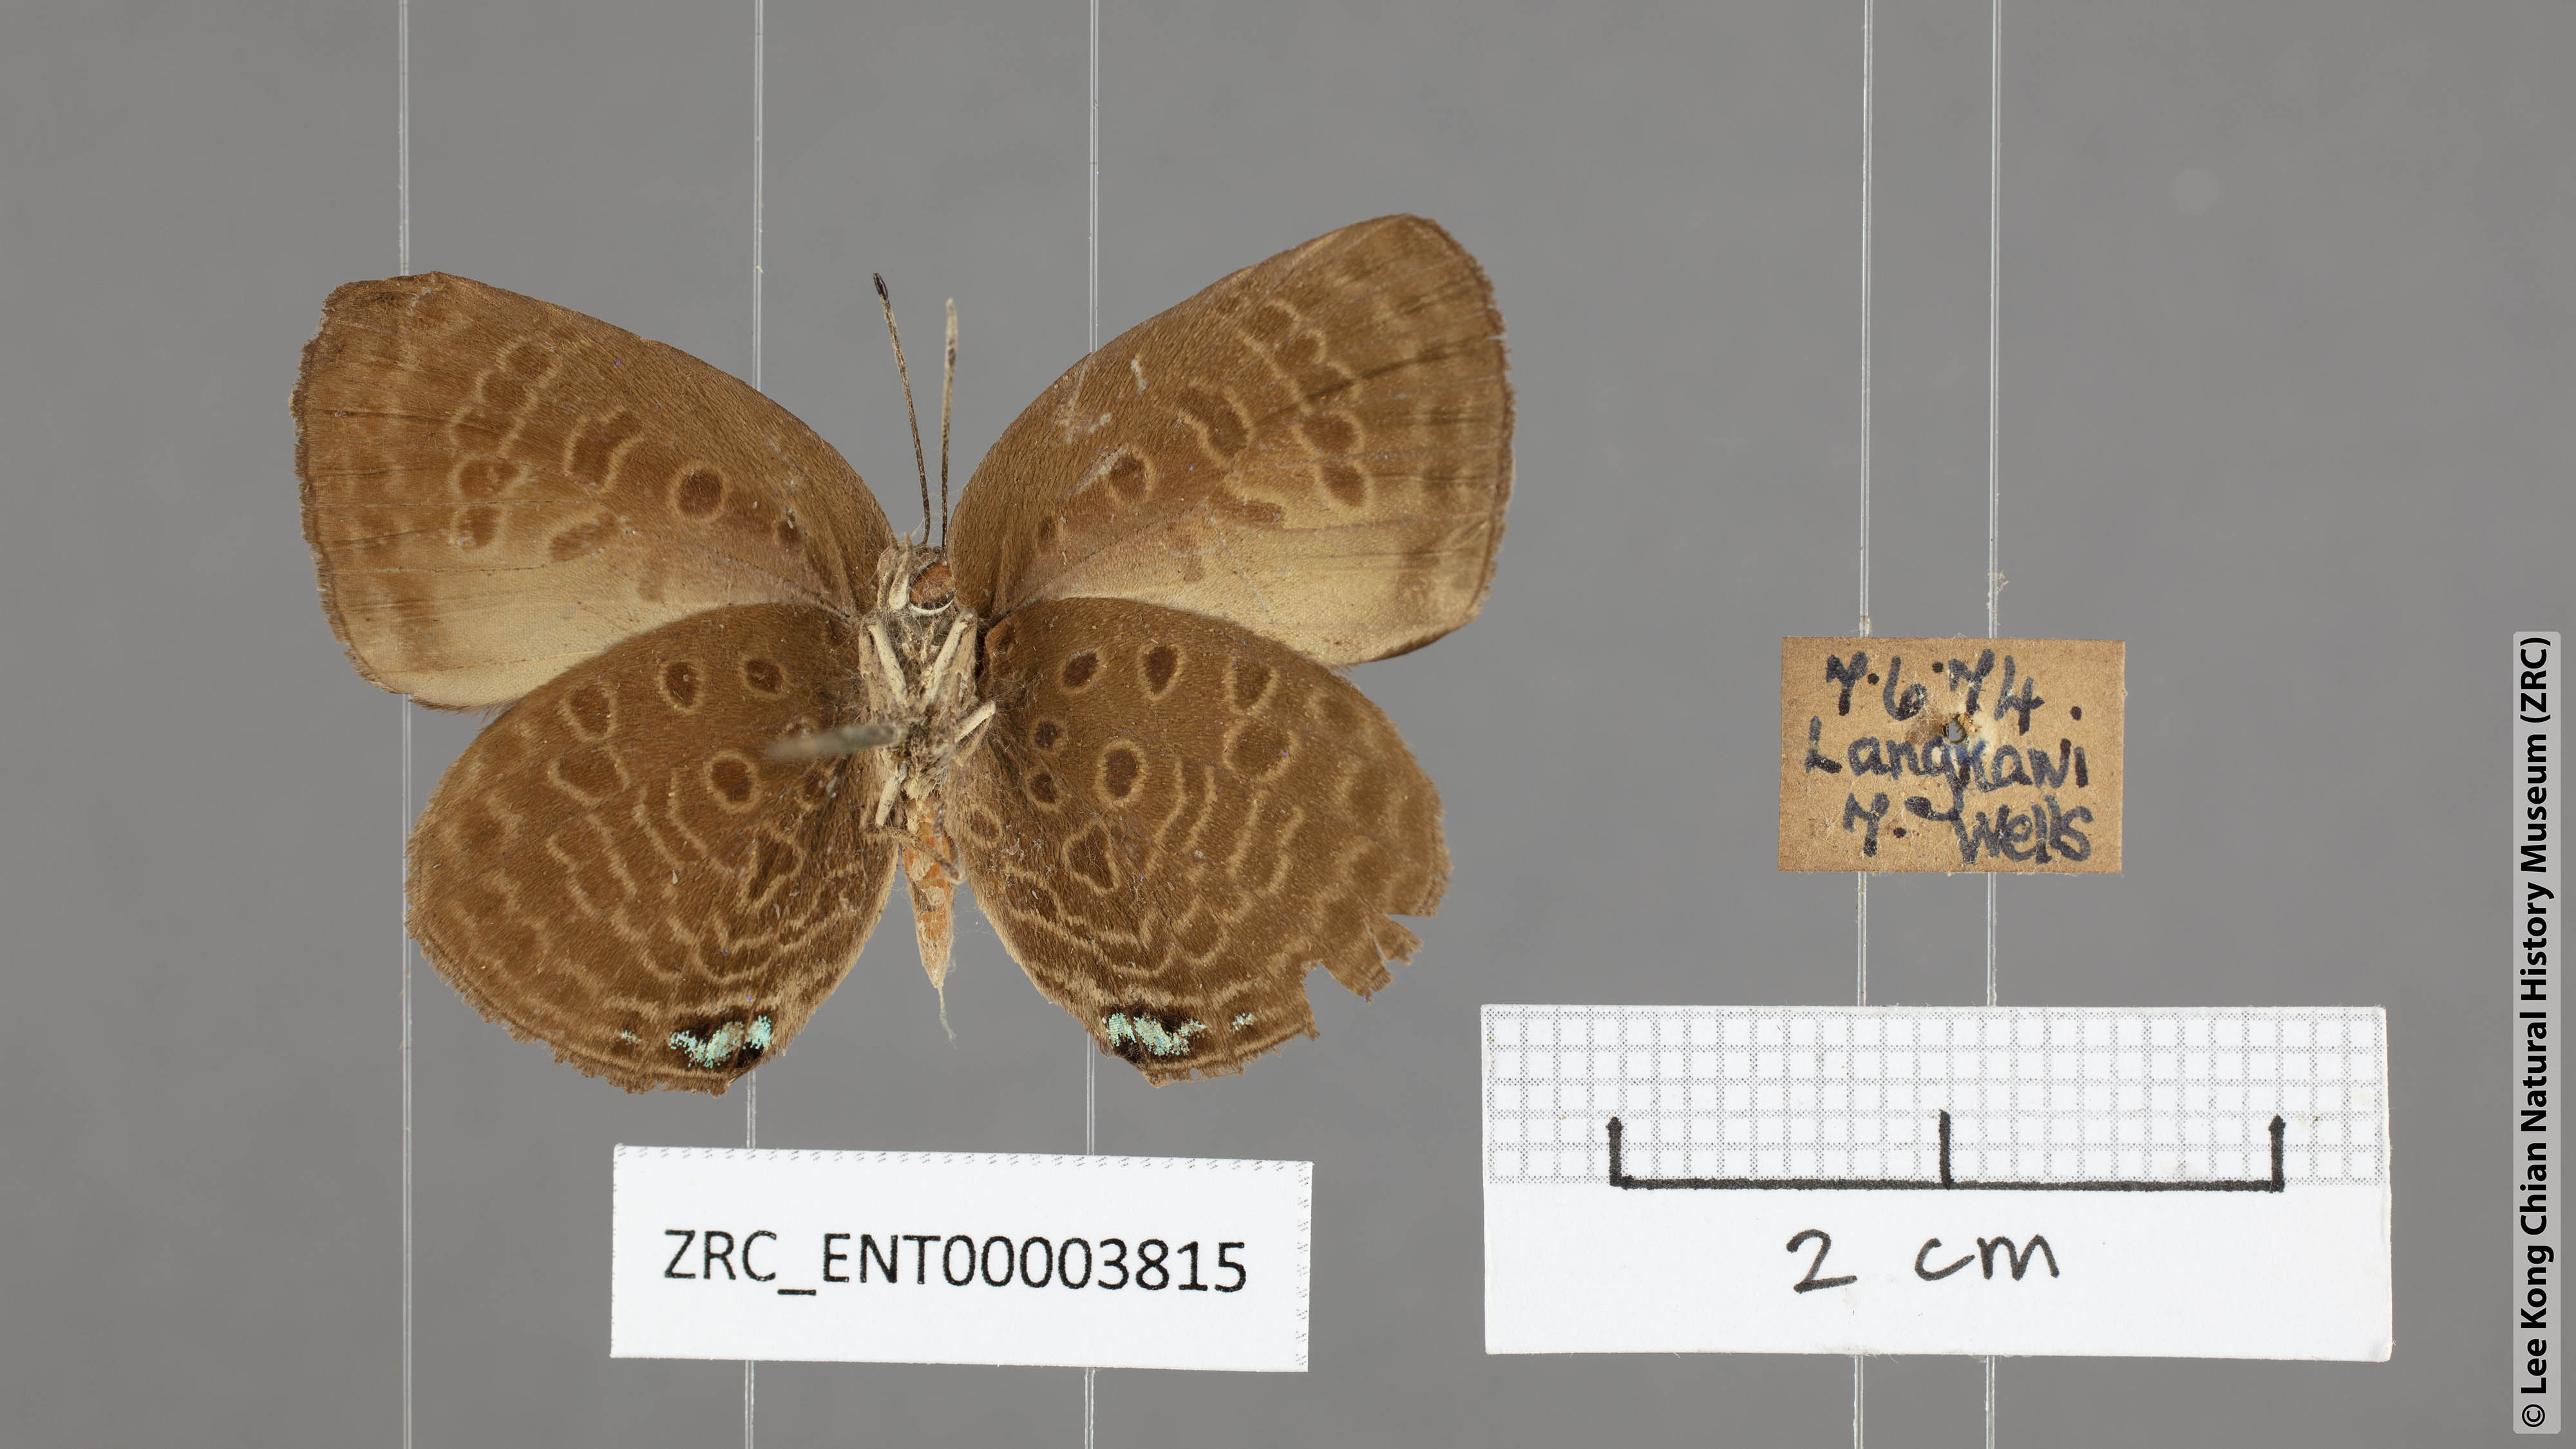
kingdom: Animalia
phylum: Arthropoda
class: Insecta
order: Lepidoptera
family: Lycaenidae
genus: Arhopala
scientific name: Arhopala agesilaus
